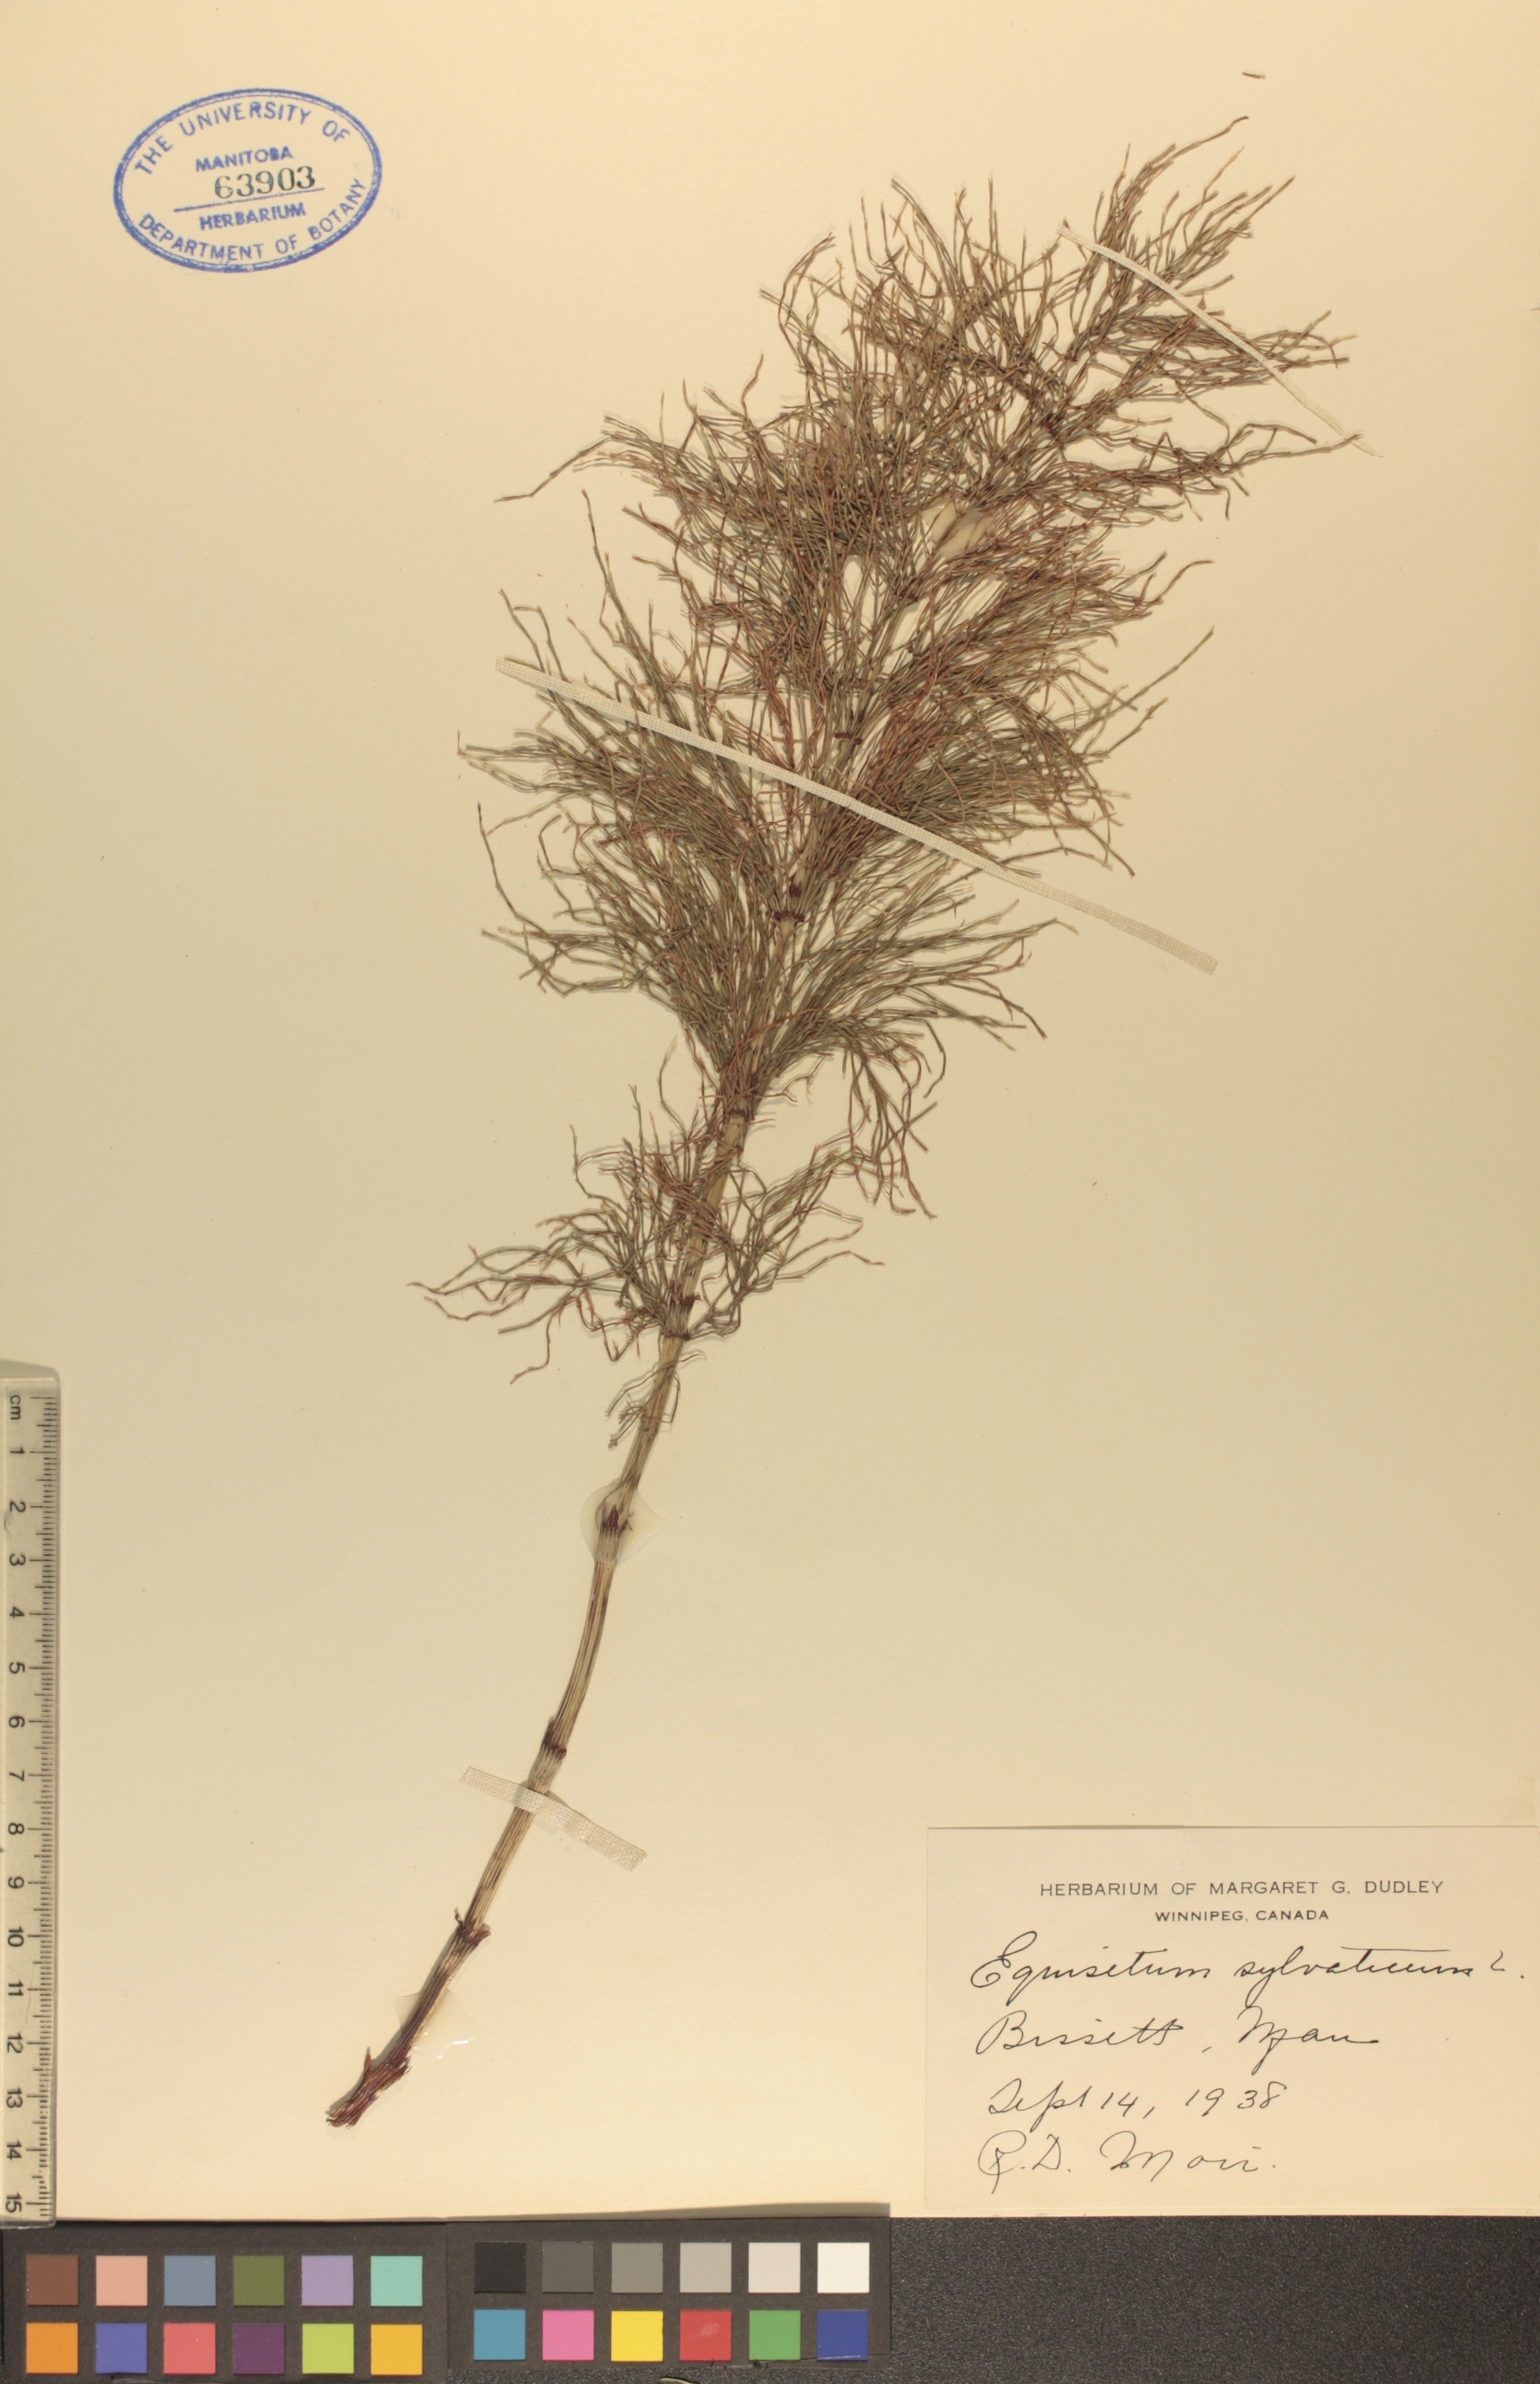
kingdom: Plantae
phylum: Tracheophyta
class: Polypodiopsida
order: Equisetales
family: Equisetaceae
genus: Equisetum
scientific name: Equisetum sylvaticum
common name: Wood horsetail
